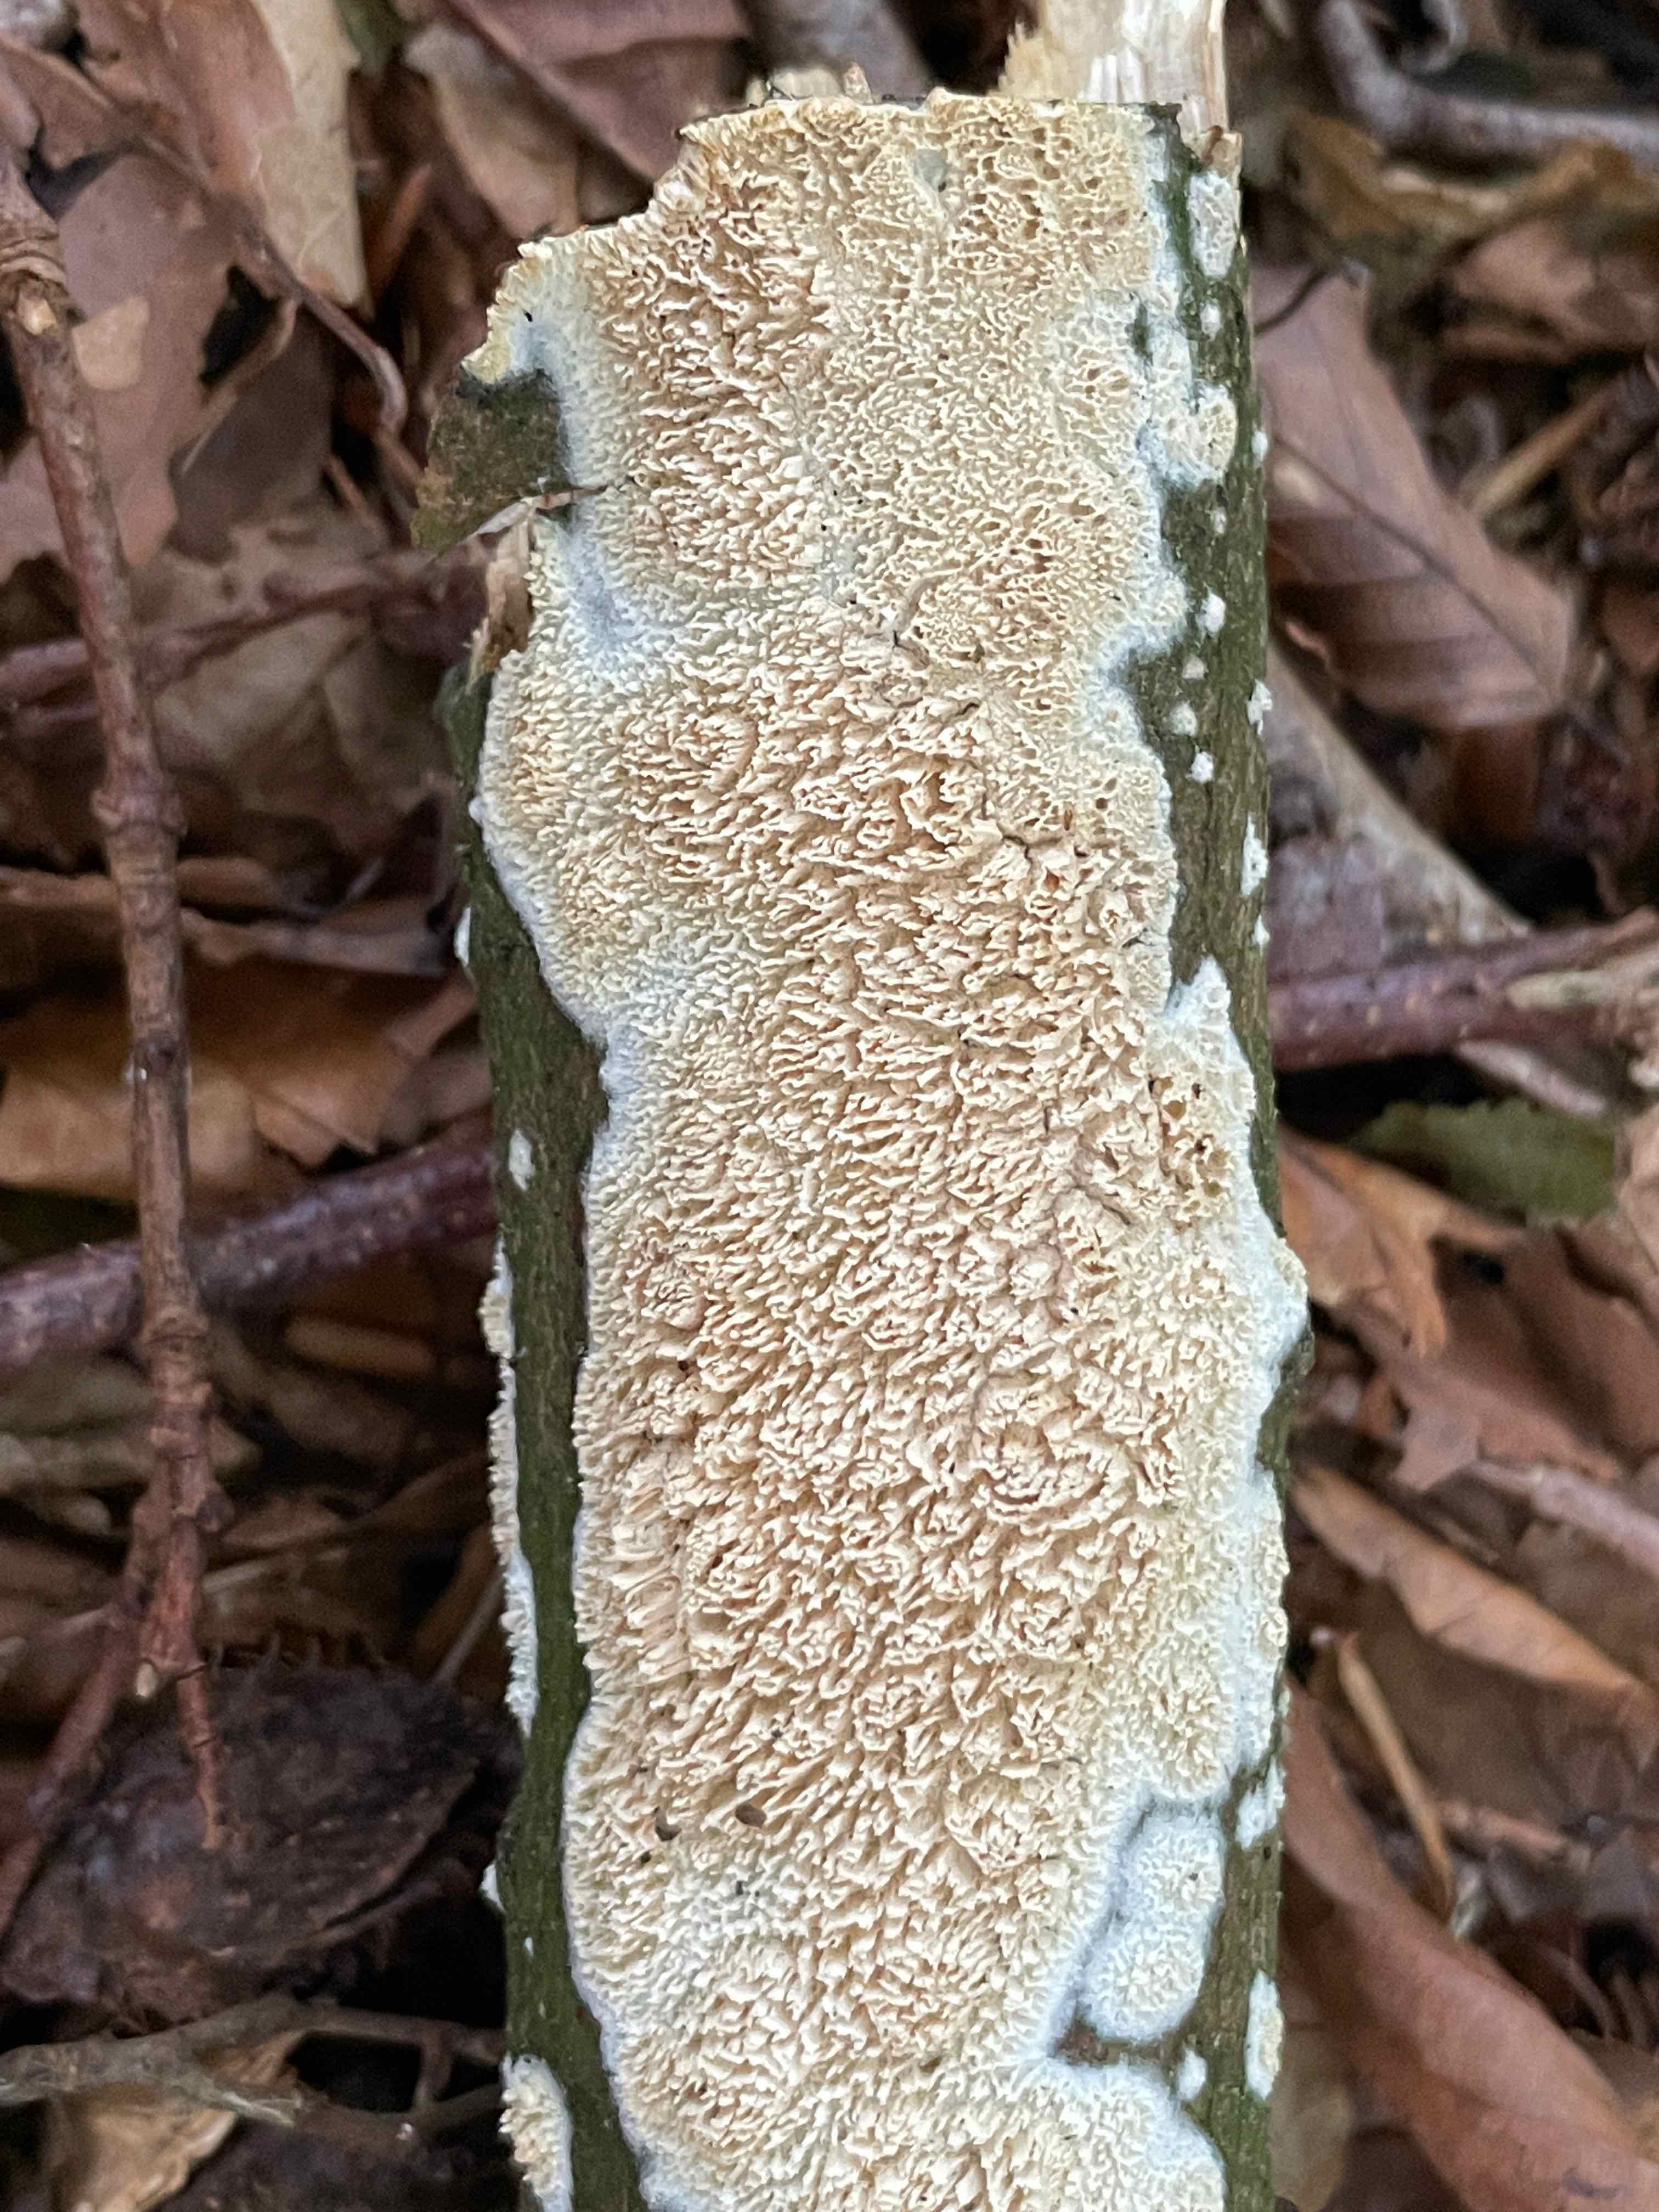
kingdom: Fungi
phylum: Basidiomycota
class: Agaricomycetes
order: Hymenochaetales
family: Schizoporaceae
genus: Schizopora
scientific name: Schizopora paradoxa
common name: hvid tandsvamp
